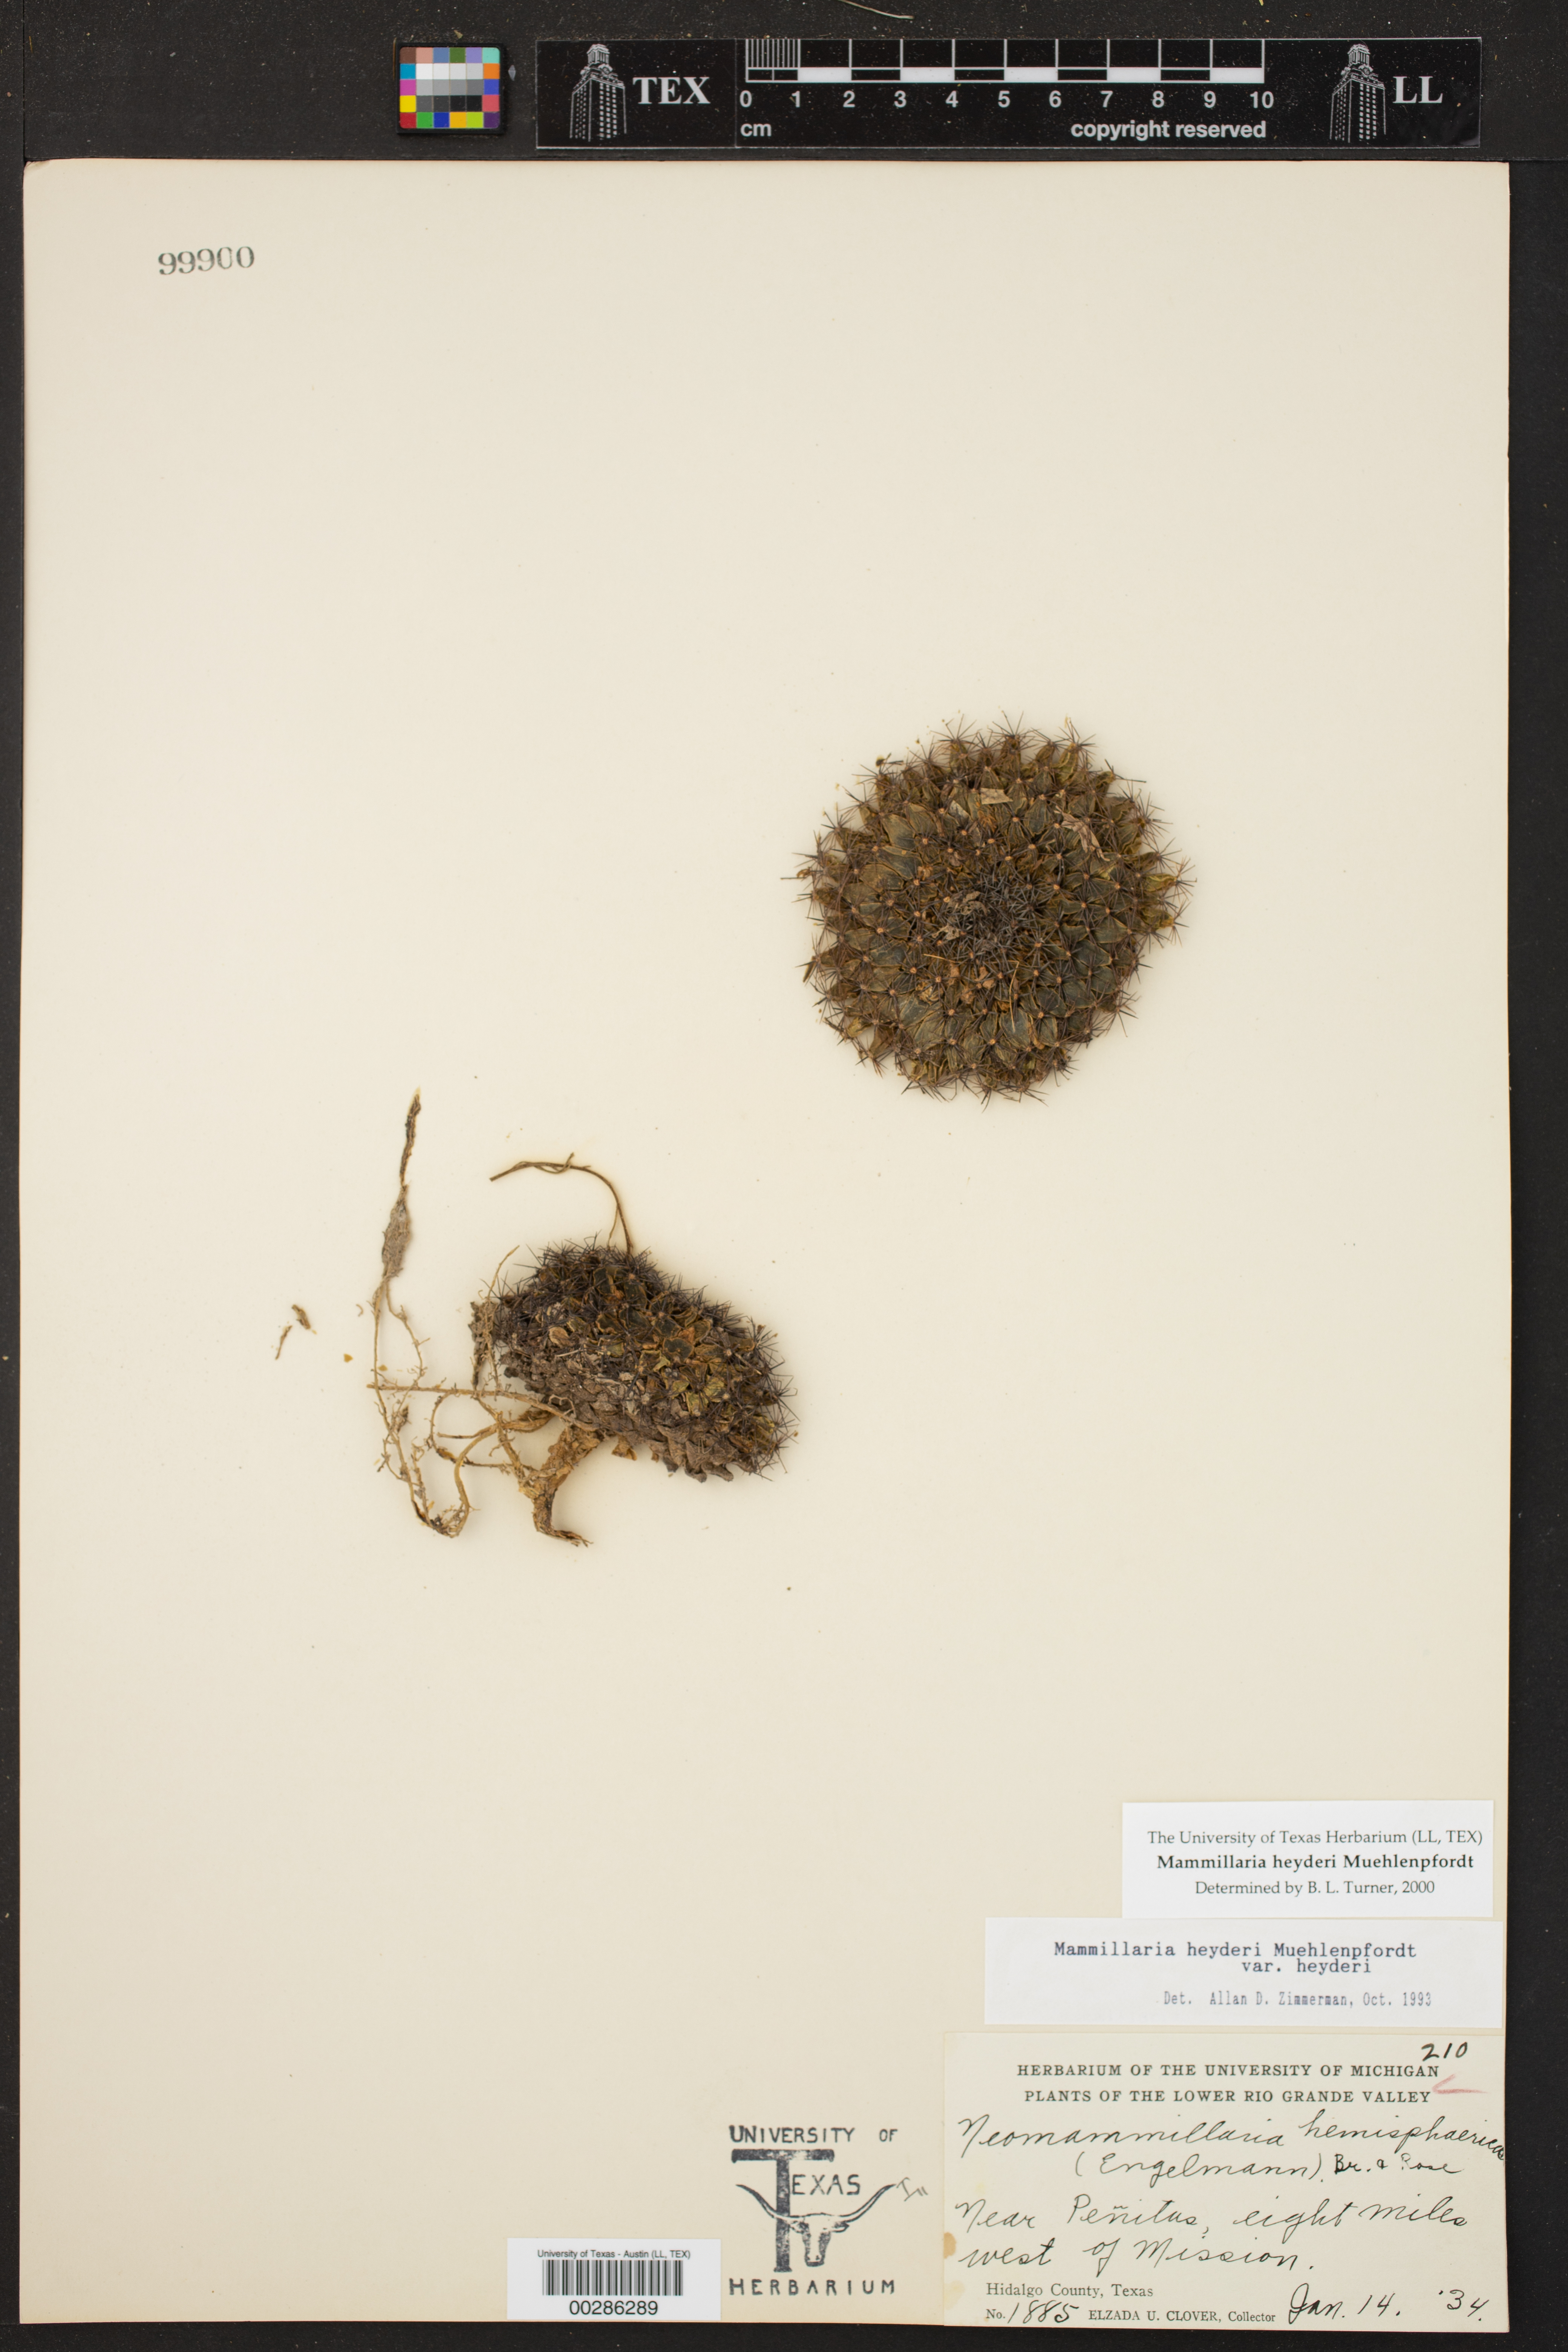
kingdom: Plantae
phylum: Tracheophyta
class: Magnoliopsida
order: Caryophyllales
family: Cactaceae
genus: Mammillaria
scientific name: Mammillaria heyderi
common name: Little nipple cactus
